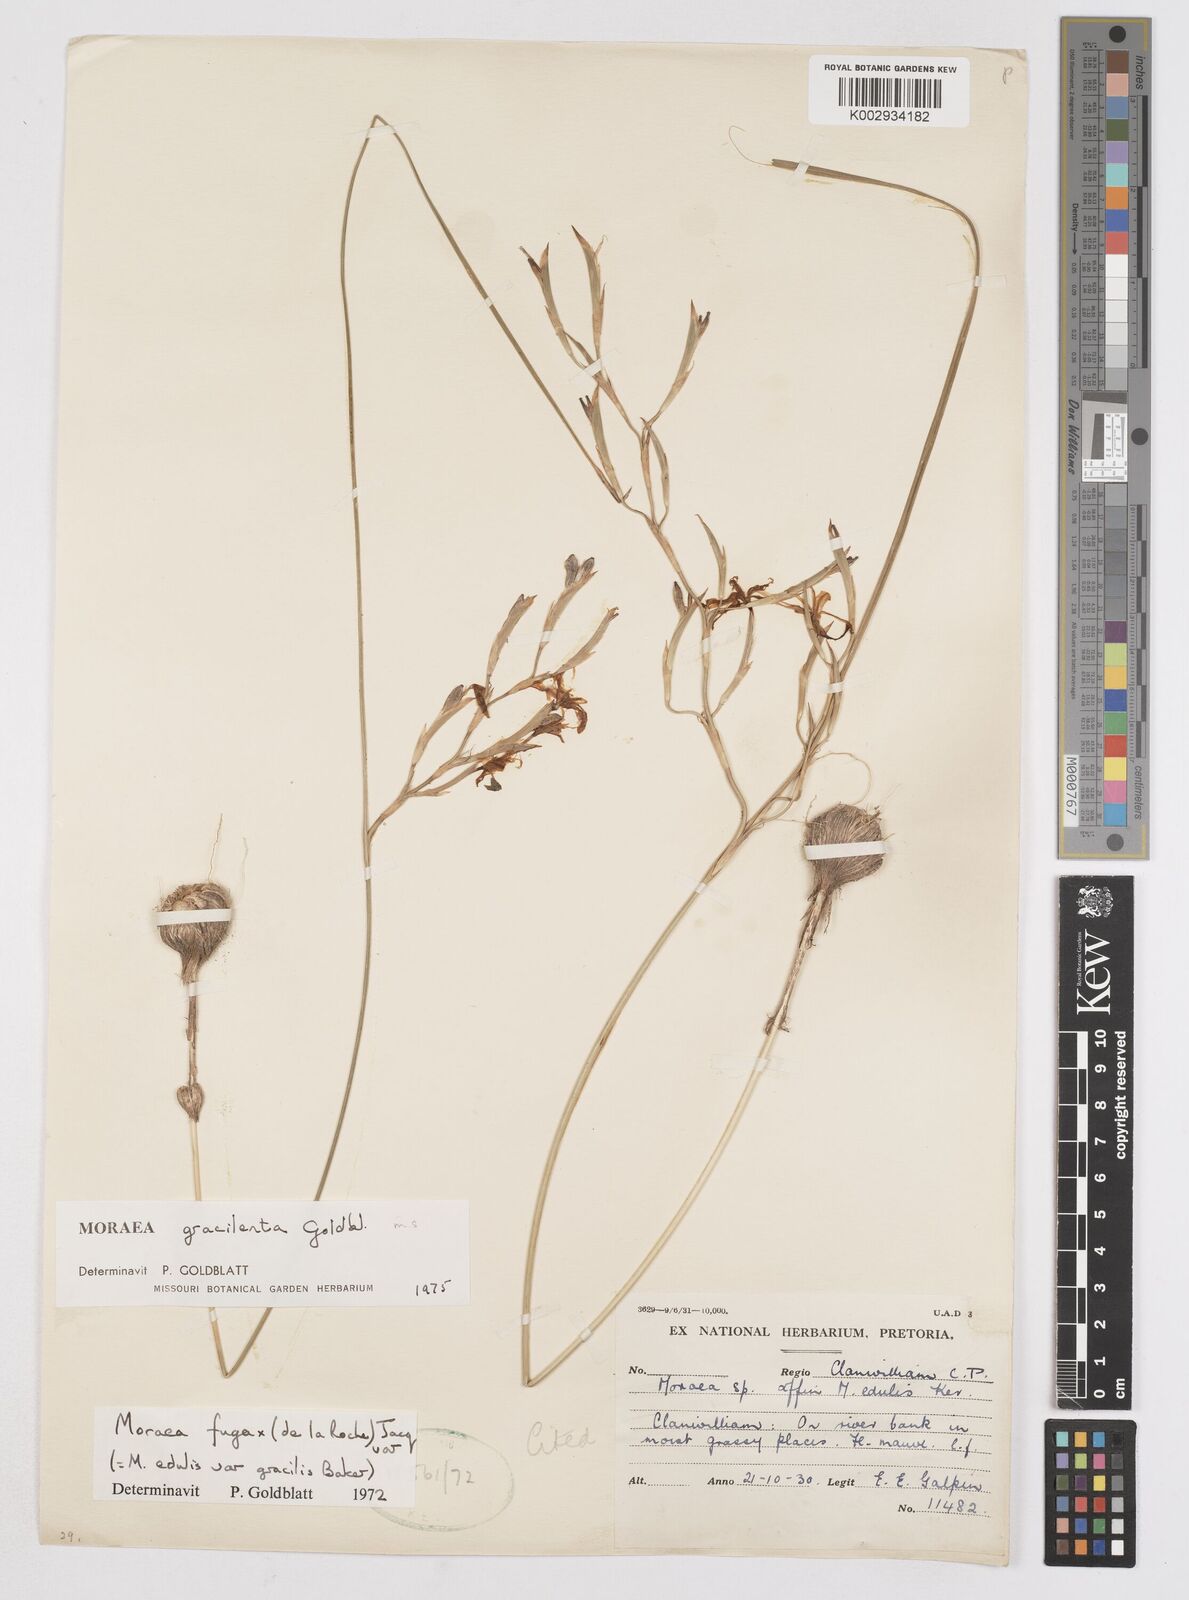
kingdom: Plantae
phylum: Tracheophyta
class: Liliopsida
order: Asparagales
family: Iridaceae
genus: Moraea
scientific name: Moraea gracilenta
